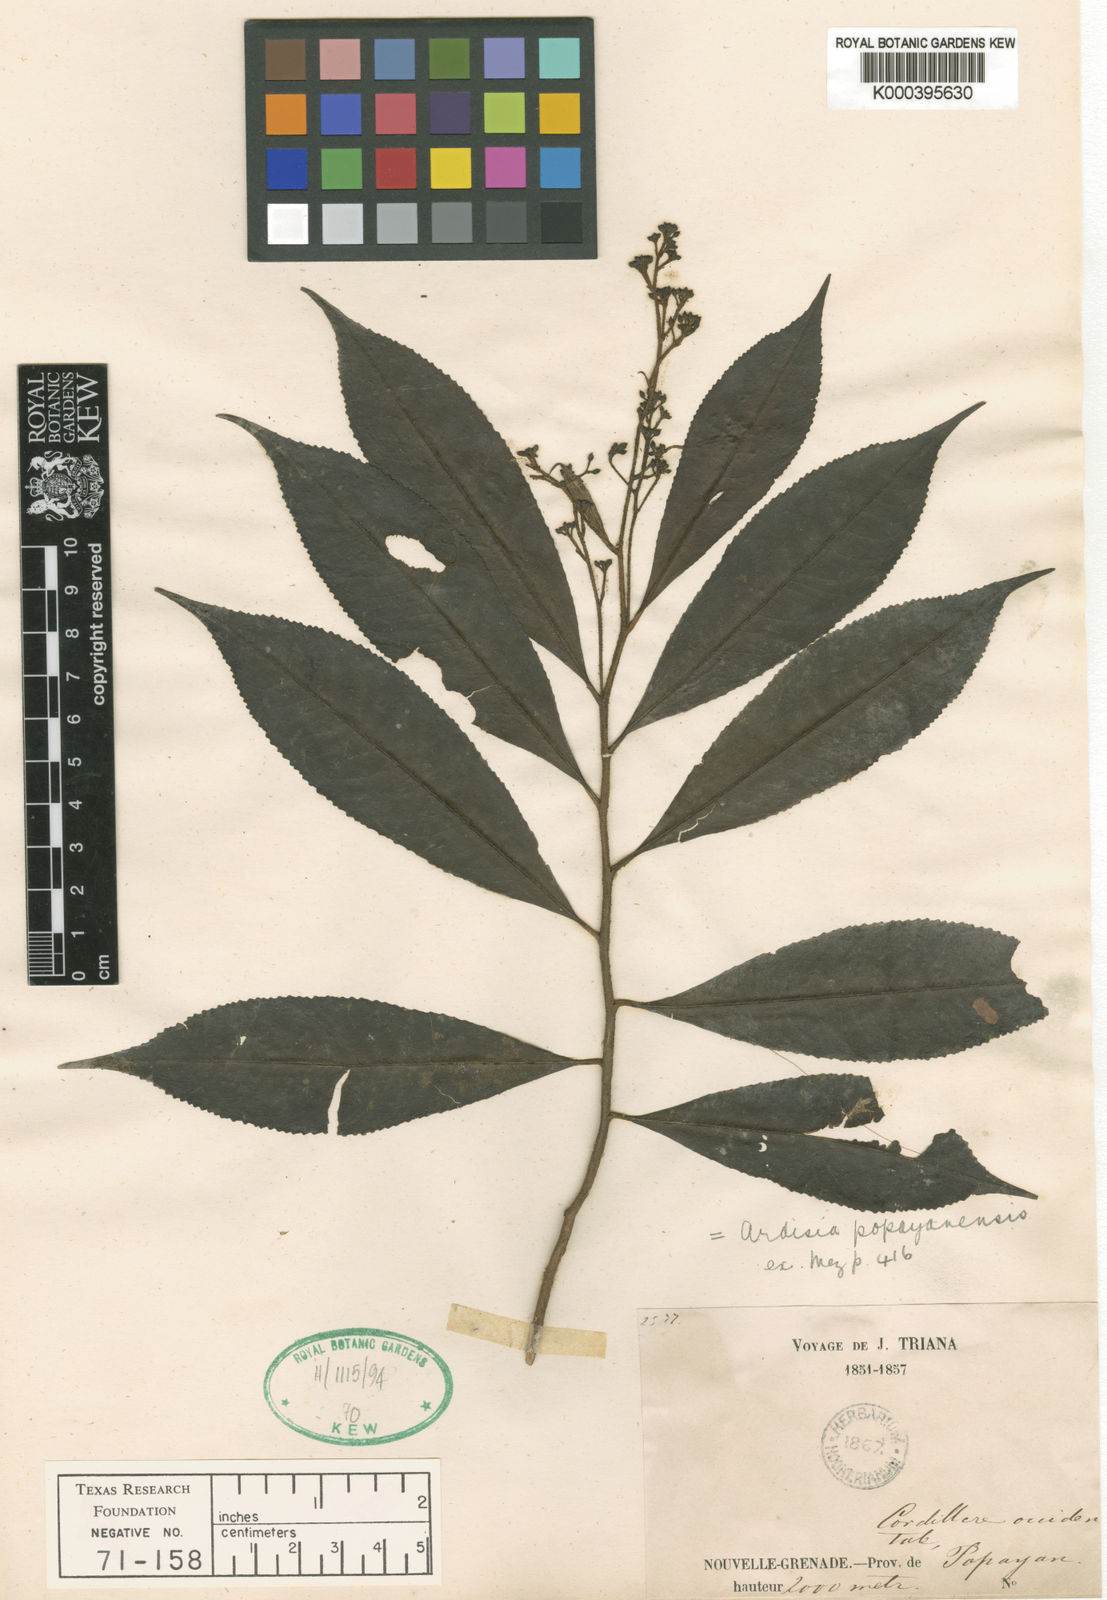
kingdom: Plantae
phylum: Tracheophyta
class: Magnoliopsida
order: Ericales
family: Primulaceae
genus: Ardisia
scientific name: Ardisia popayanensis
